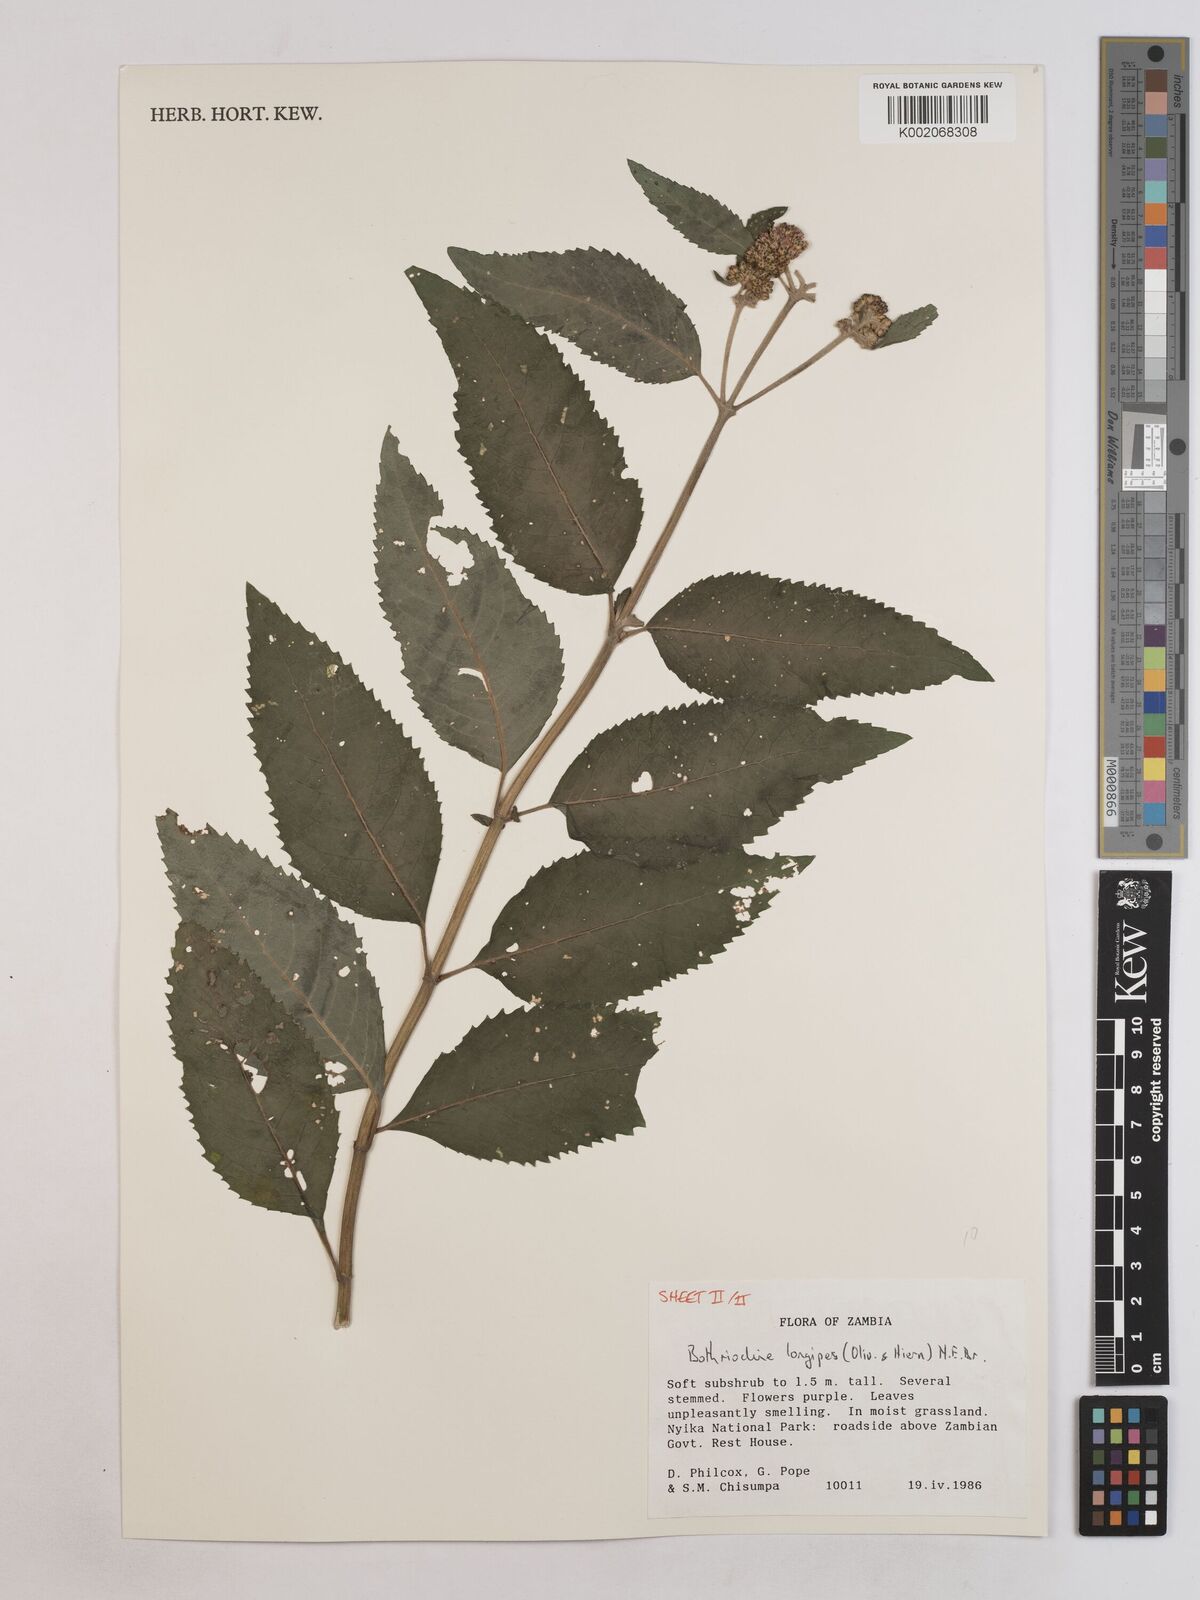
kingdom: Plantae
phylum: Tracheophyta
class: Magnoliopsida
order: Asterales
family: Asteraceae
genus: Bothriocline
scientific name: Bothriocline longipes
